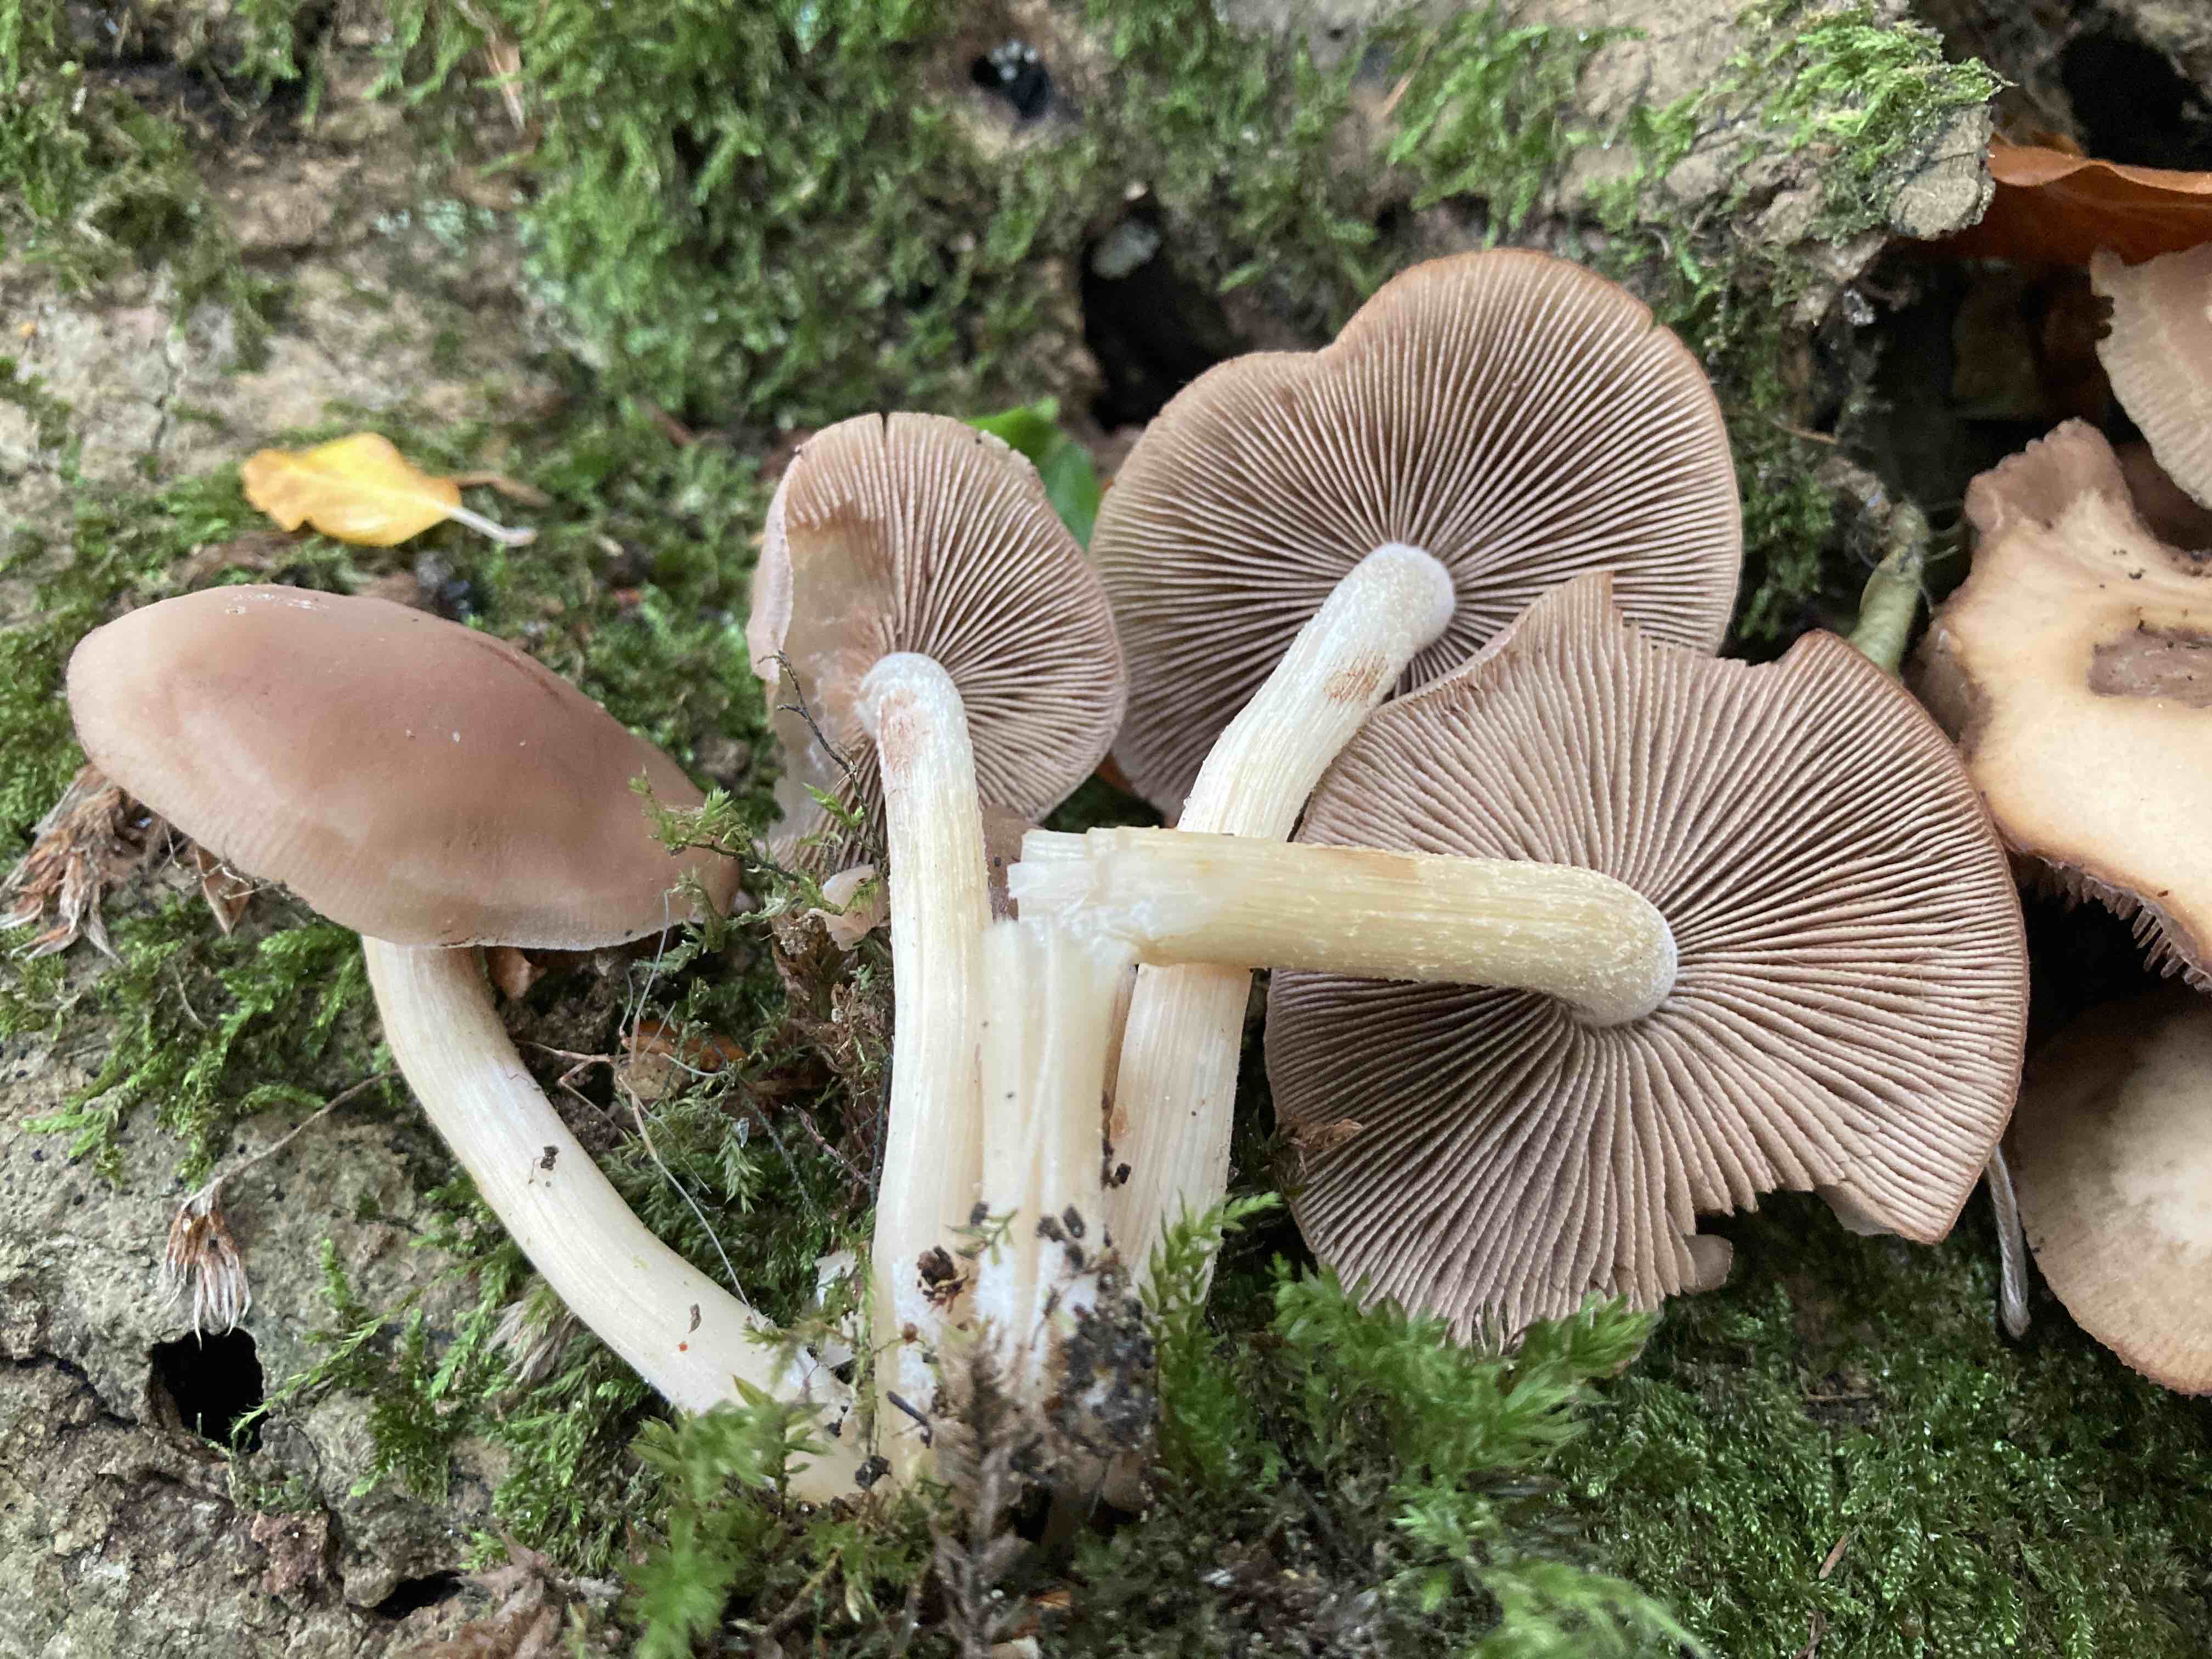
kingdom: Fungi
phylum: Basidiomycota
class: Agaricomycetes
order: Agaricales
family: Psathyrellaceae
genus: Homophron
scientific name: Homophron spadiceum
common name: daddelbrun mørkhat
